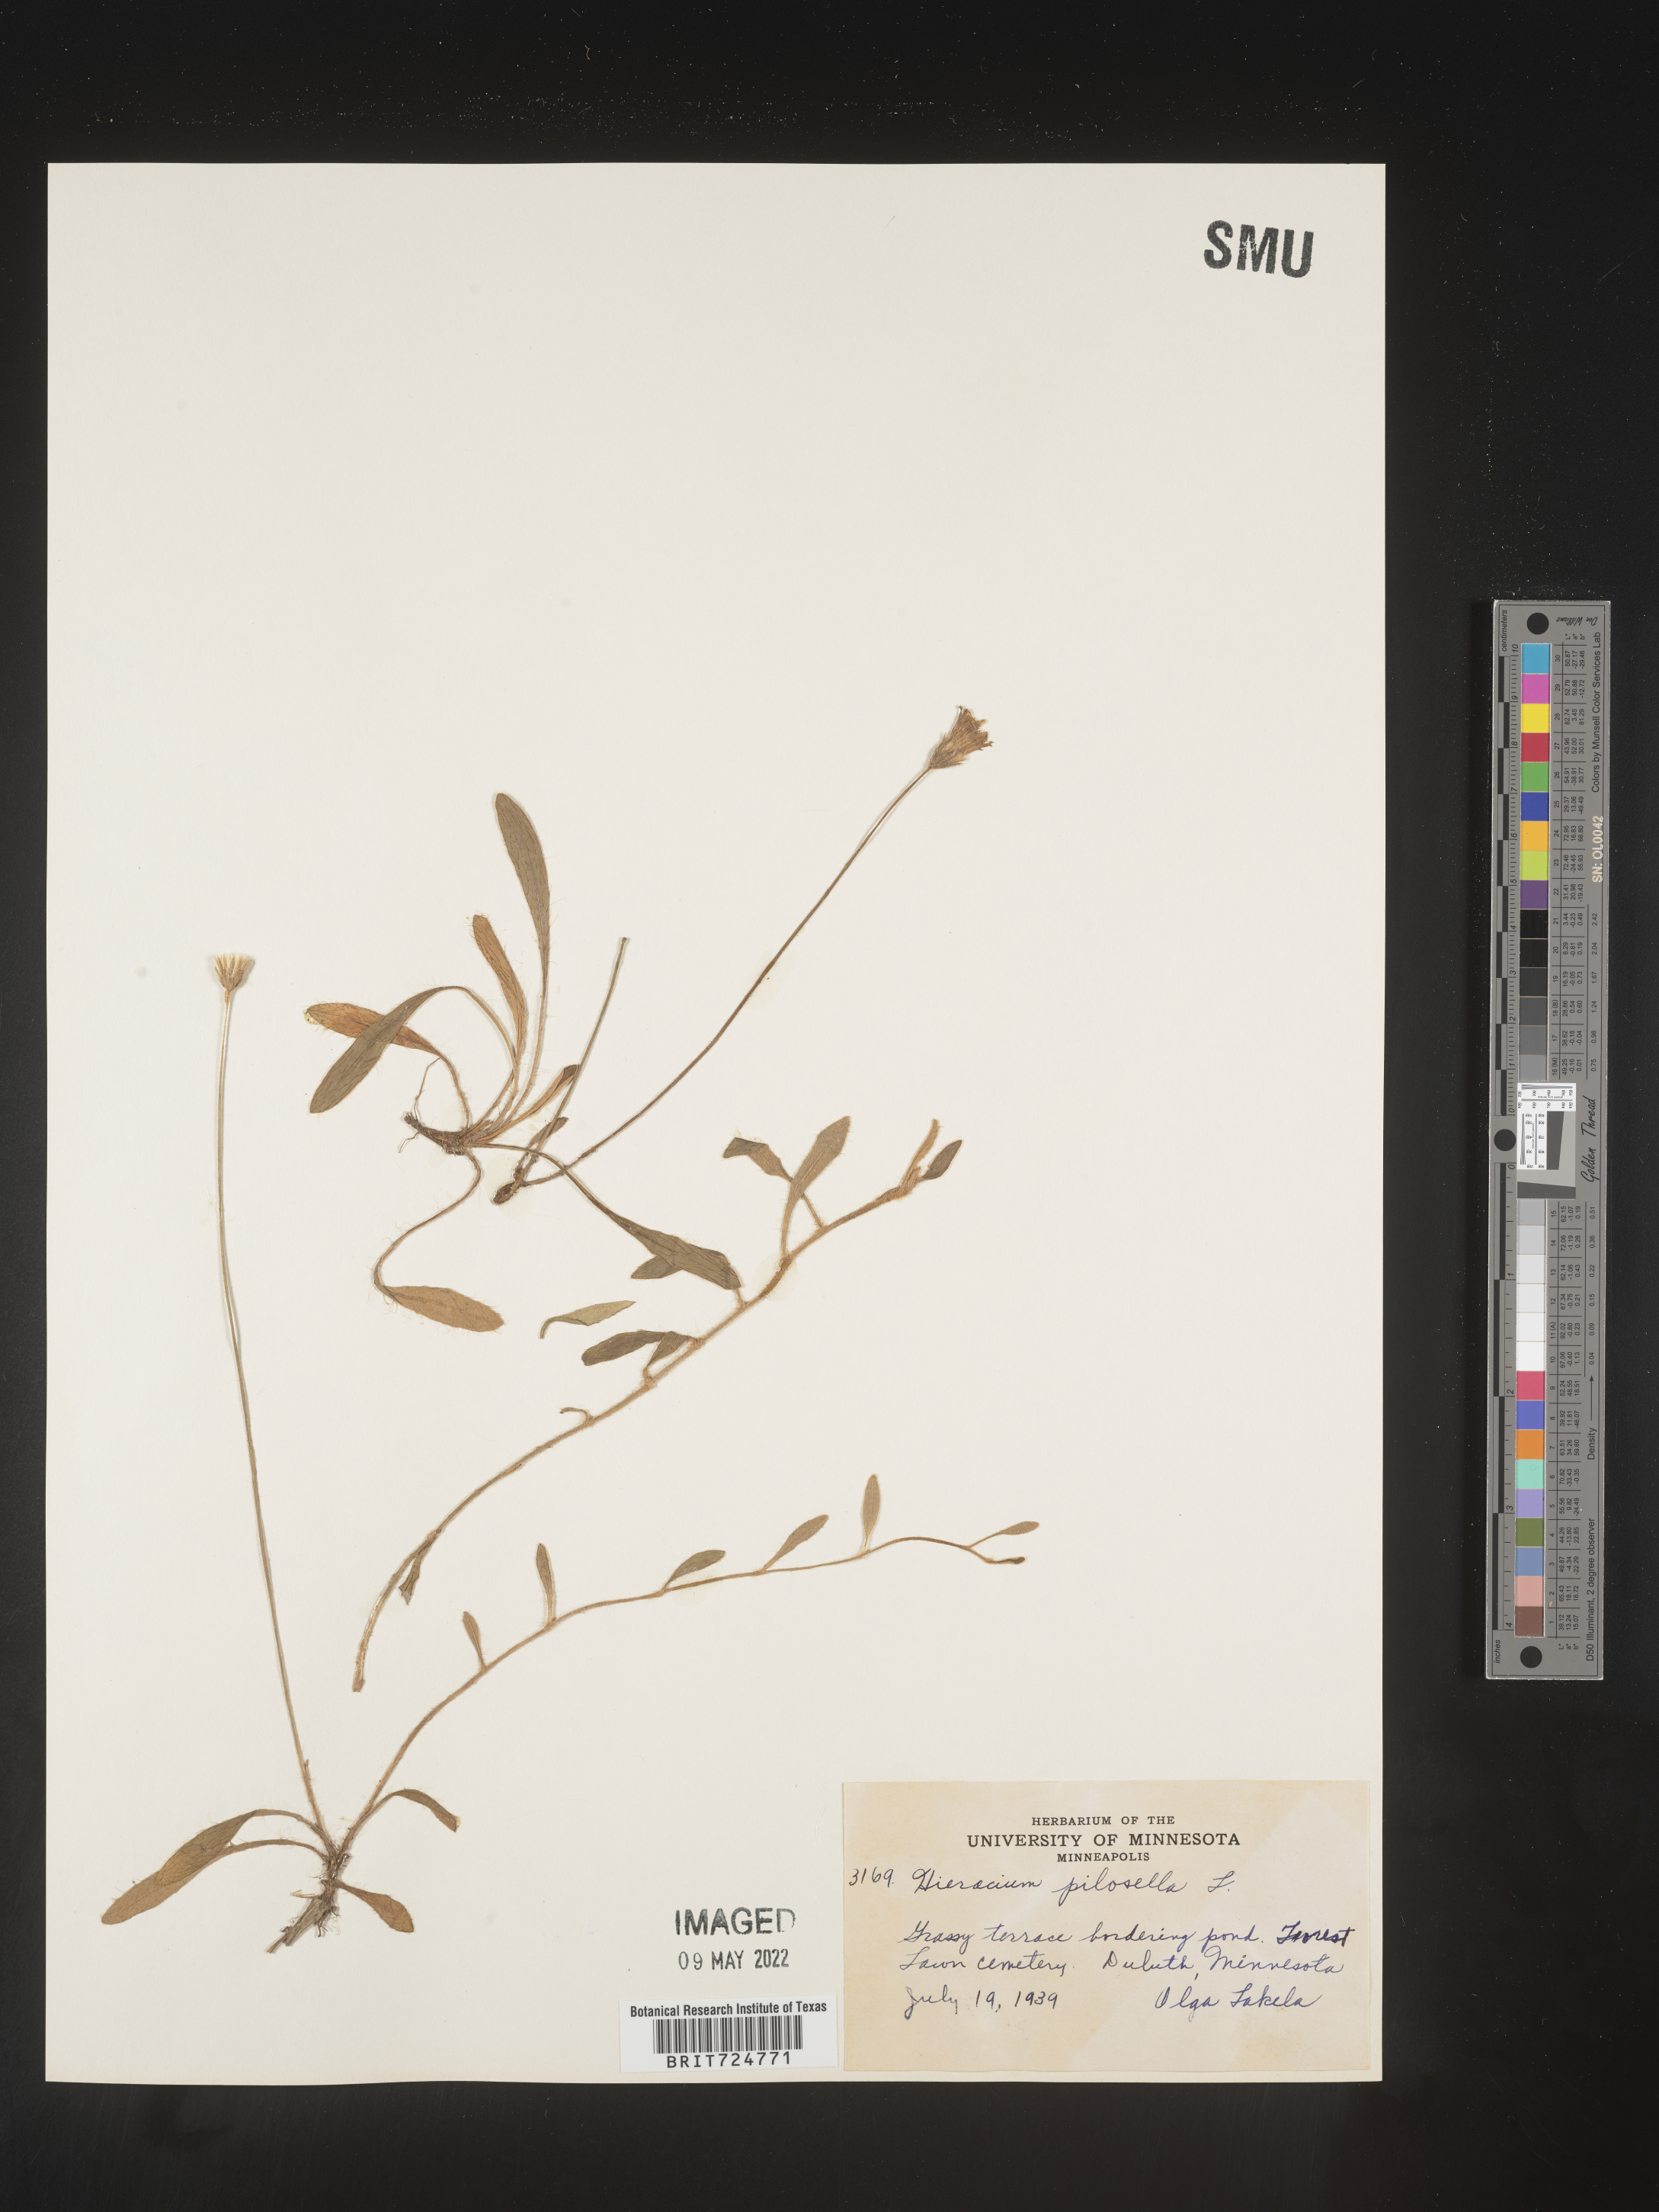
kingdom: Plantae
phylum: Tracheophyta
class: Magnoliopsida
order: Asterales
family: Asteraceae
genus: Hieracium
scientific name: Hieracium
